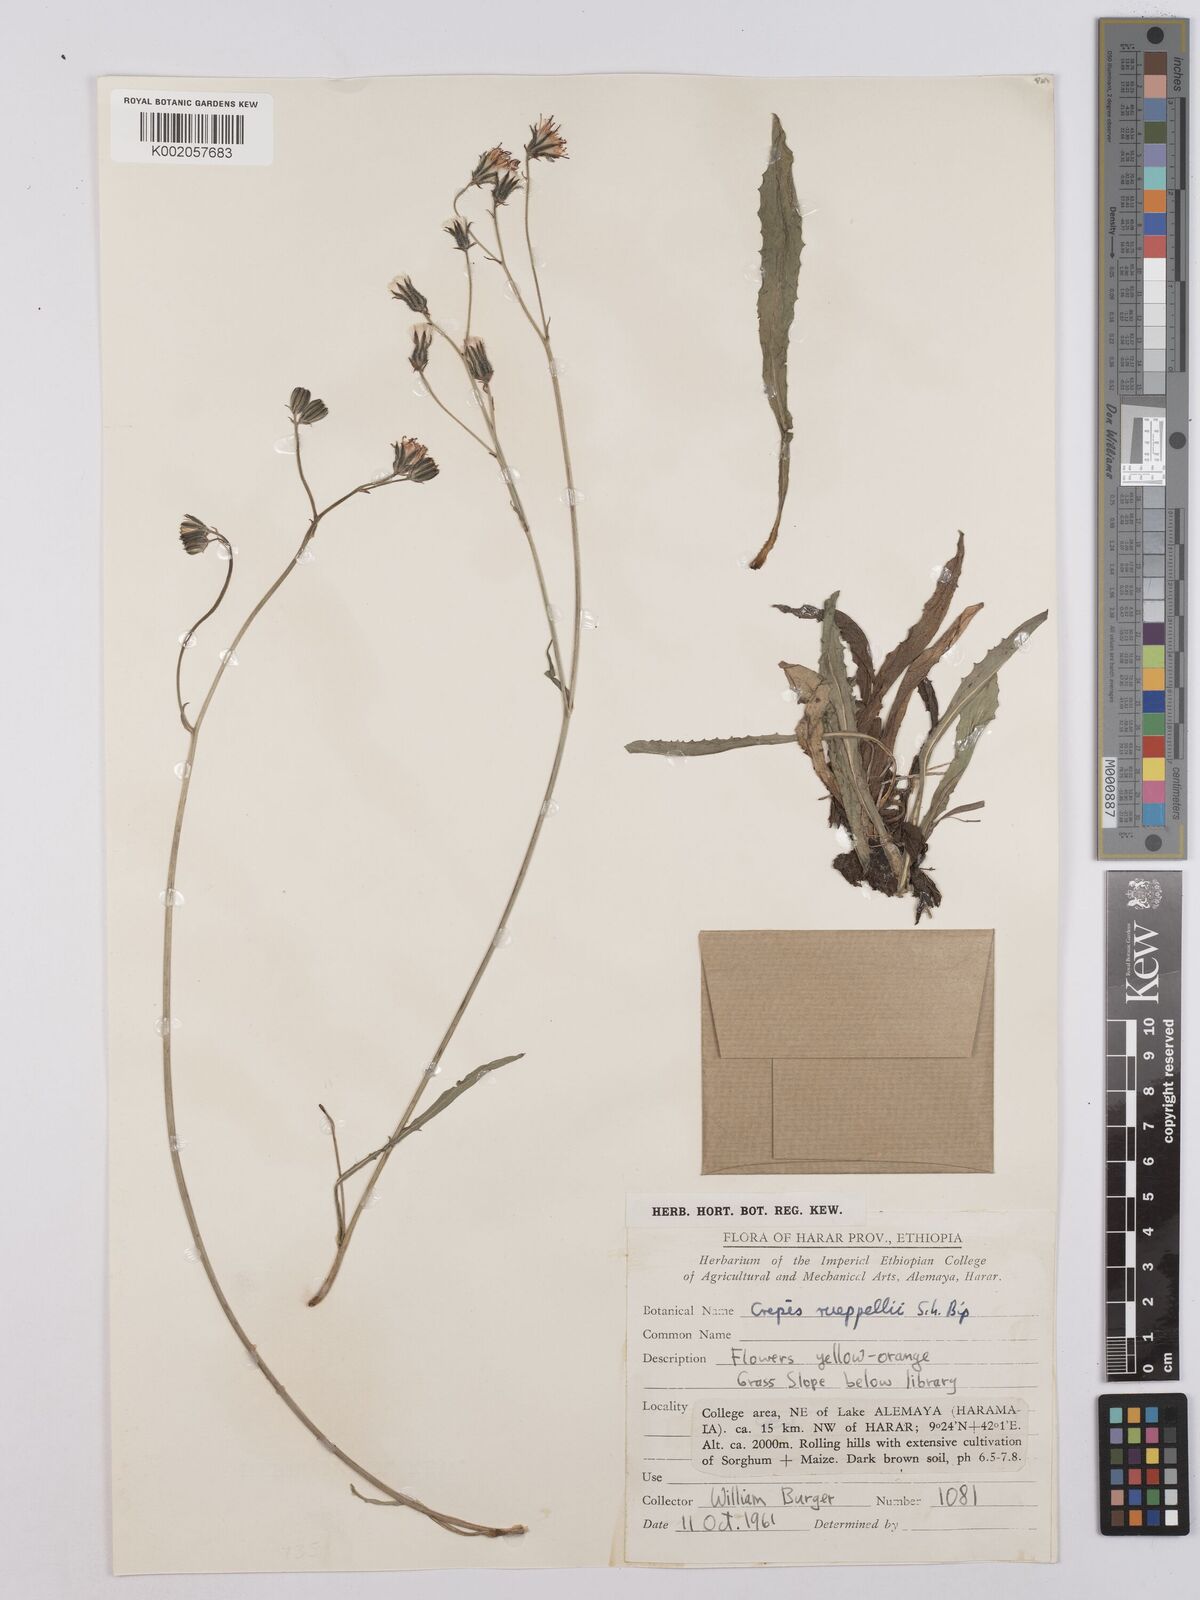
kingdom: Plantae
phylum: Tracheophyta
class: Magnoliopsida
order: Asterales
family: Asteraceae
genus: Crepis
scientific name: Crepis rueppellii
